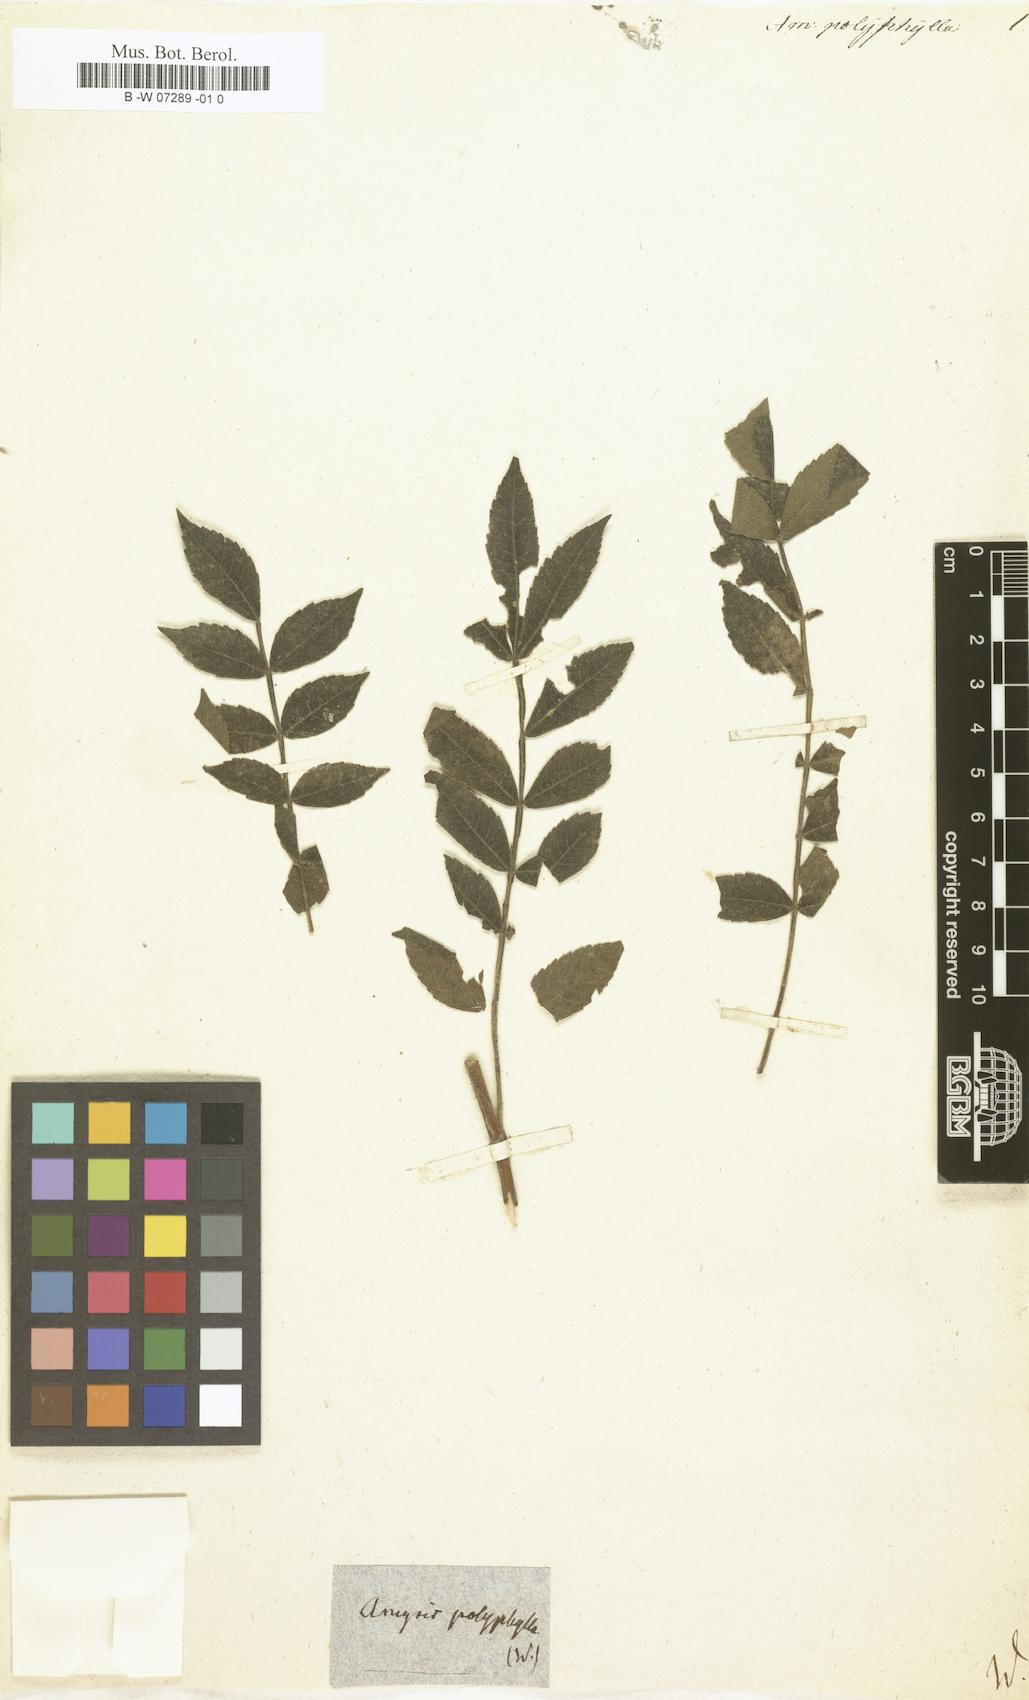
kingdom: Plantae
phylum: Tracheophyta
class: Magnoliopsida
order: Sapindales
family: Rutaceae
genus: Amyris
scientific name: Amyris
